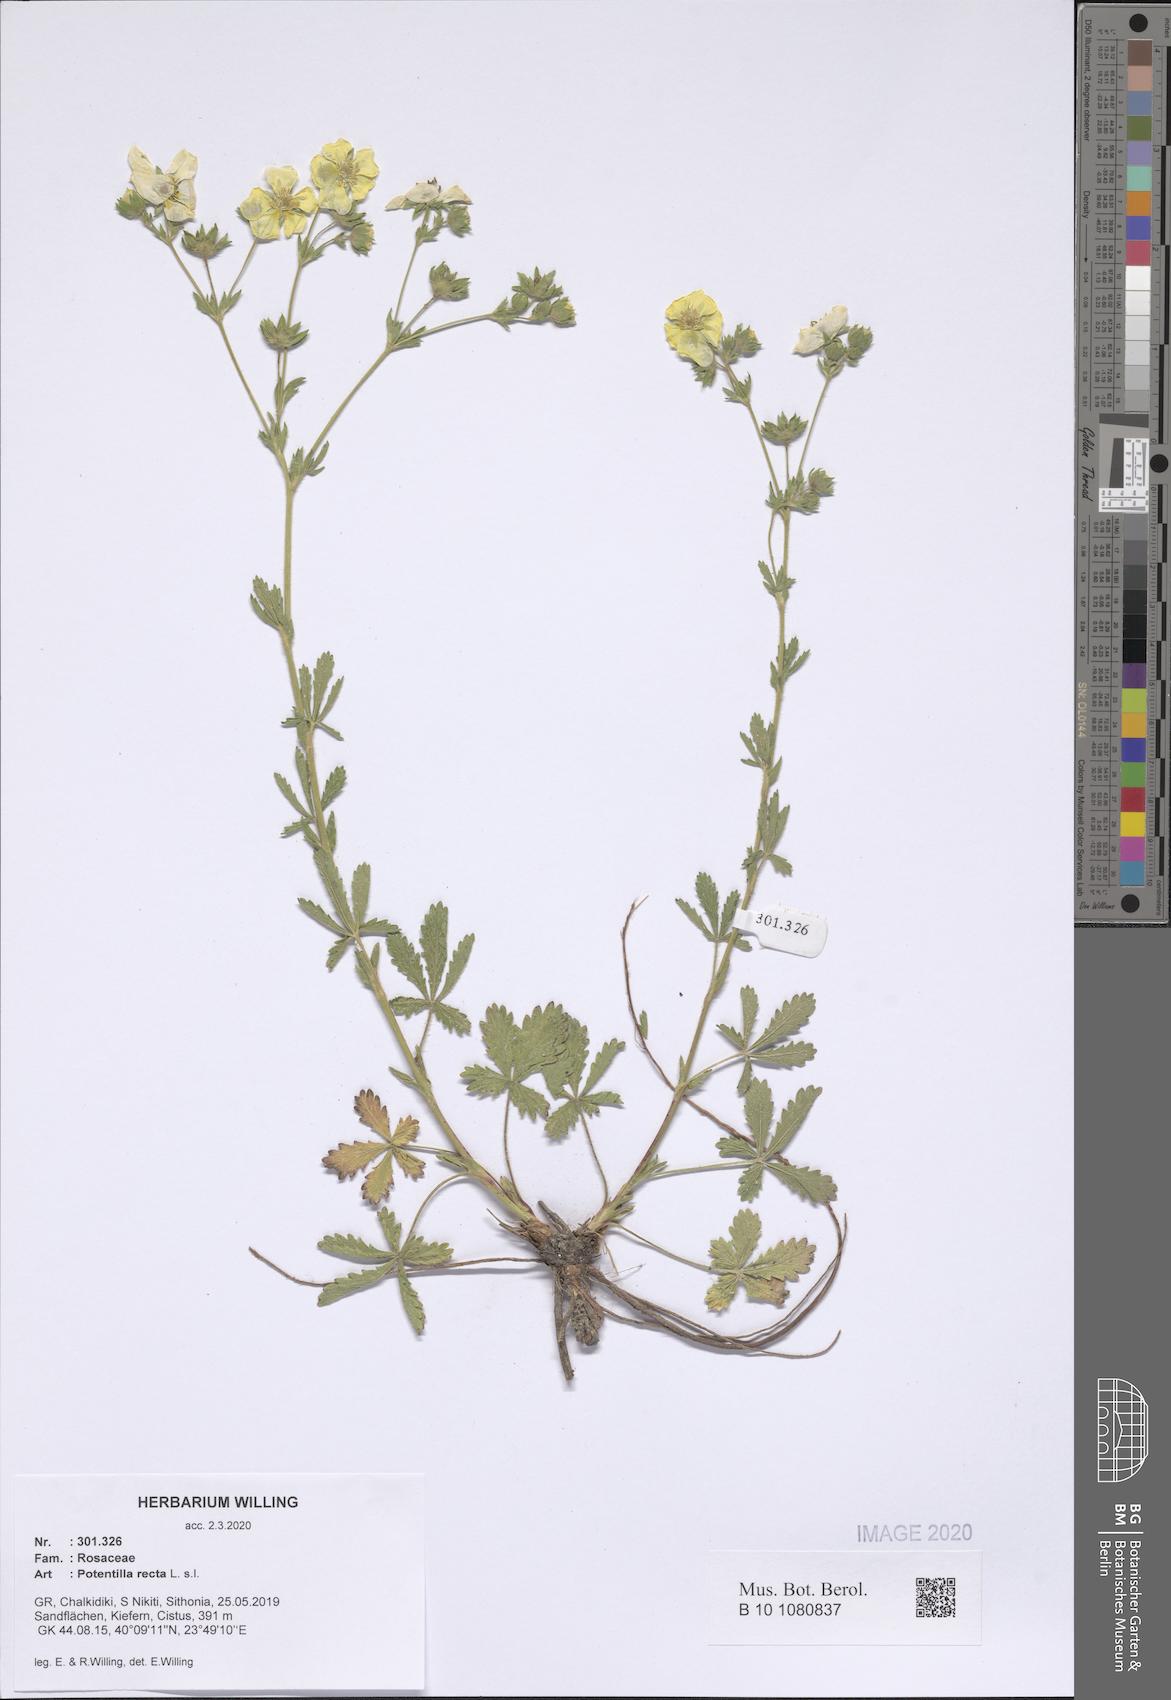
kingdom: Plantae
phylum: Tracheophyta
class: Magnoliopsida
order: Rosales
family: Rosaceae
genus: Potentilla
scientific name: Potentilla recta
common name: Sulphur cinquefoil
